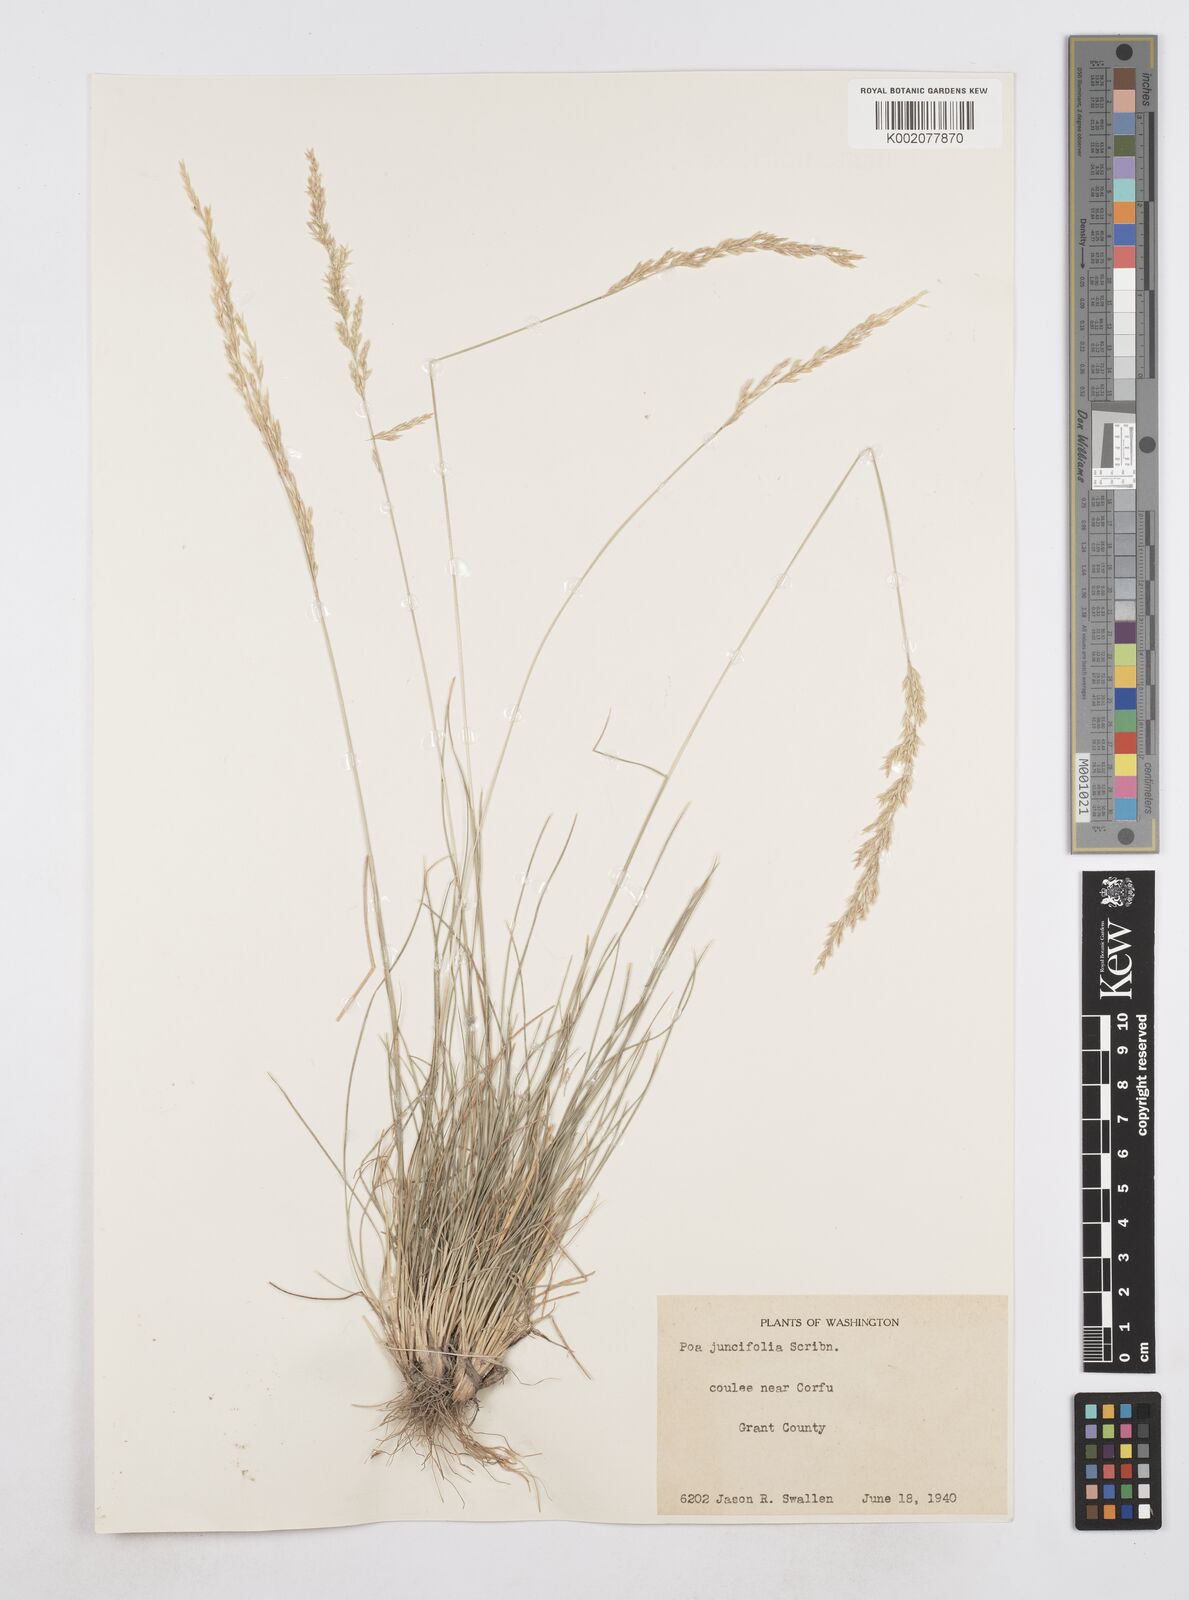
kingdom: Plantae
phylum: Tracheophyta
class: Liliopsida
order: Poales
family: Poaceae
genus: Poa
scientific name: Poa secunda
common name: Sandberg bluegrass
